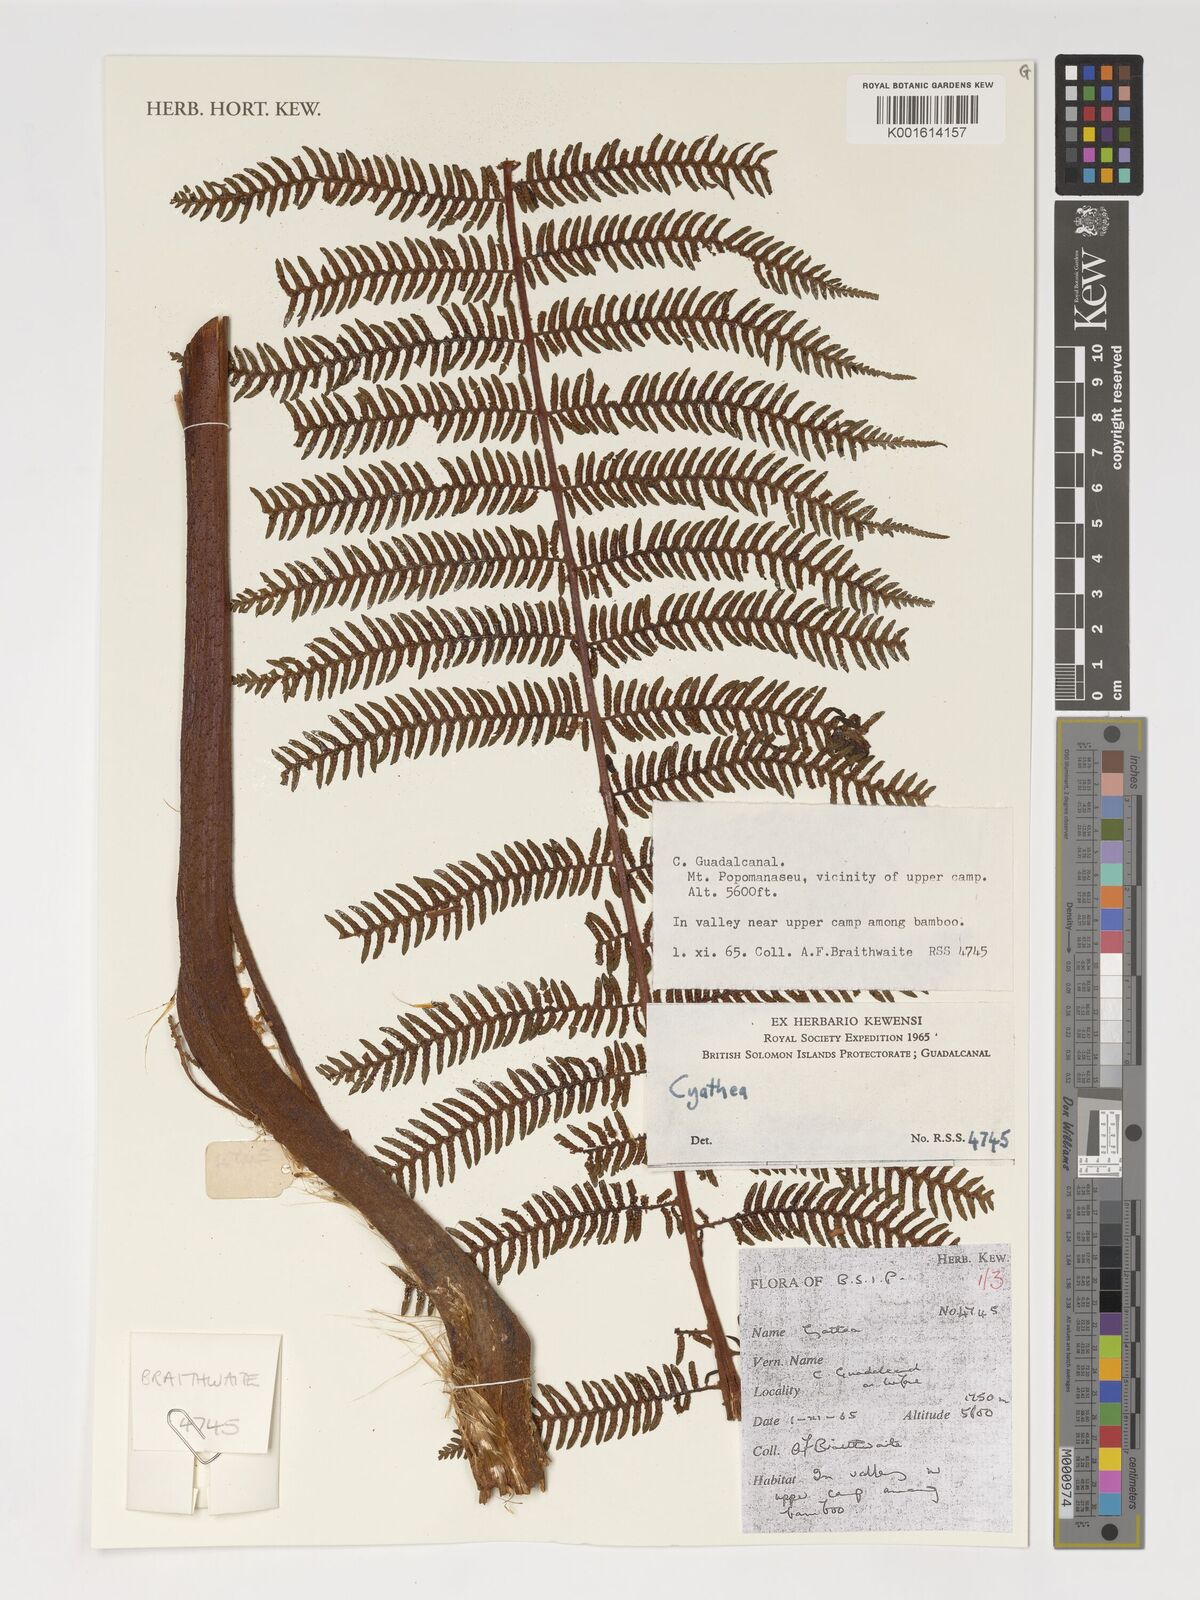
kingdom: Plantae
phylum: Tracheophyta
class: Polypodiopsida
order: Cyatheales
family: Cyatheaceae
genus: Alsophila
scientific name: Alsophila archboldii
